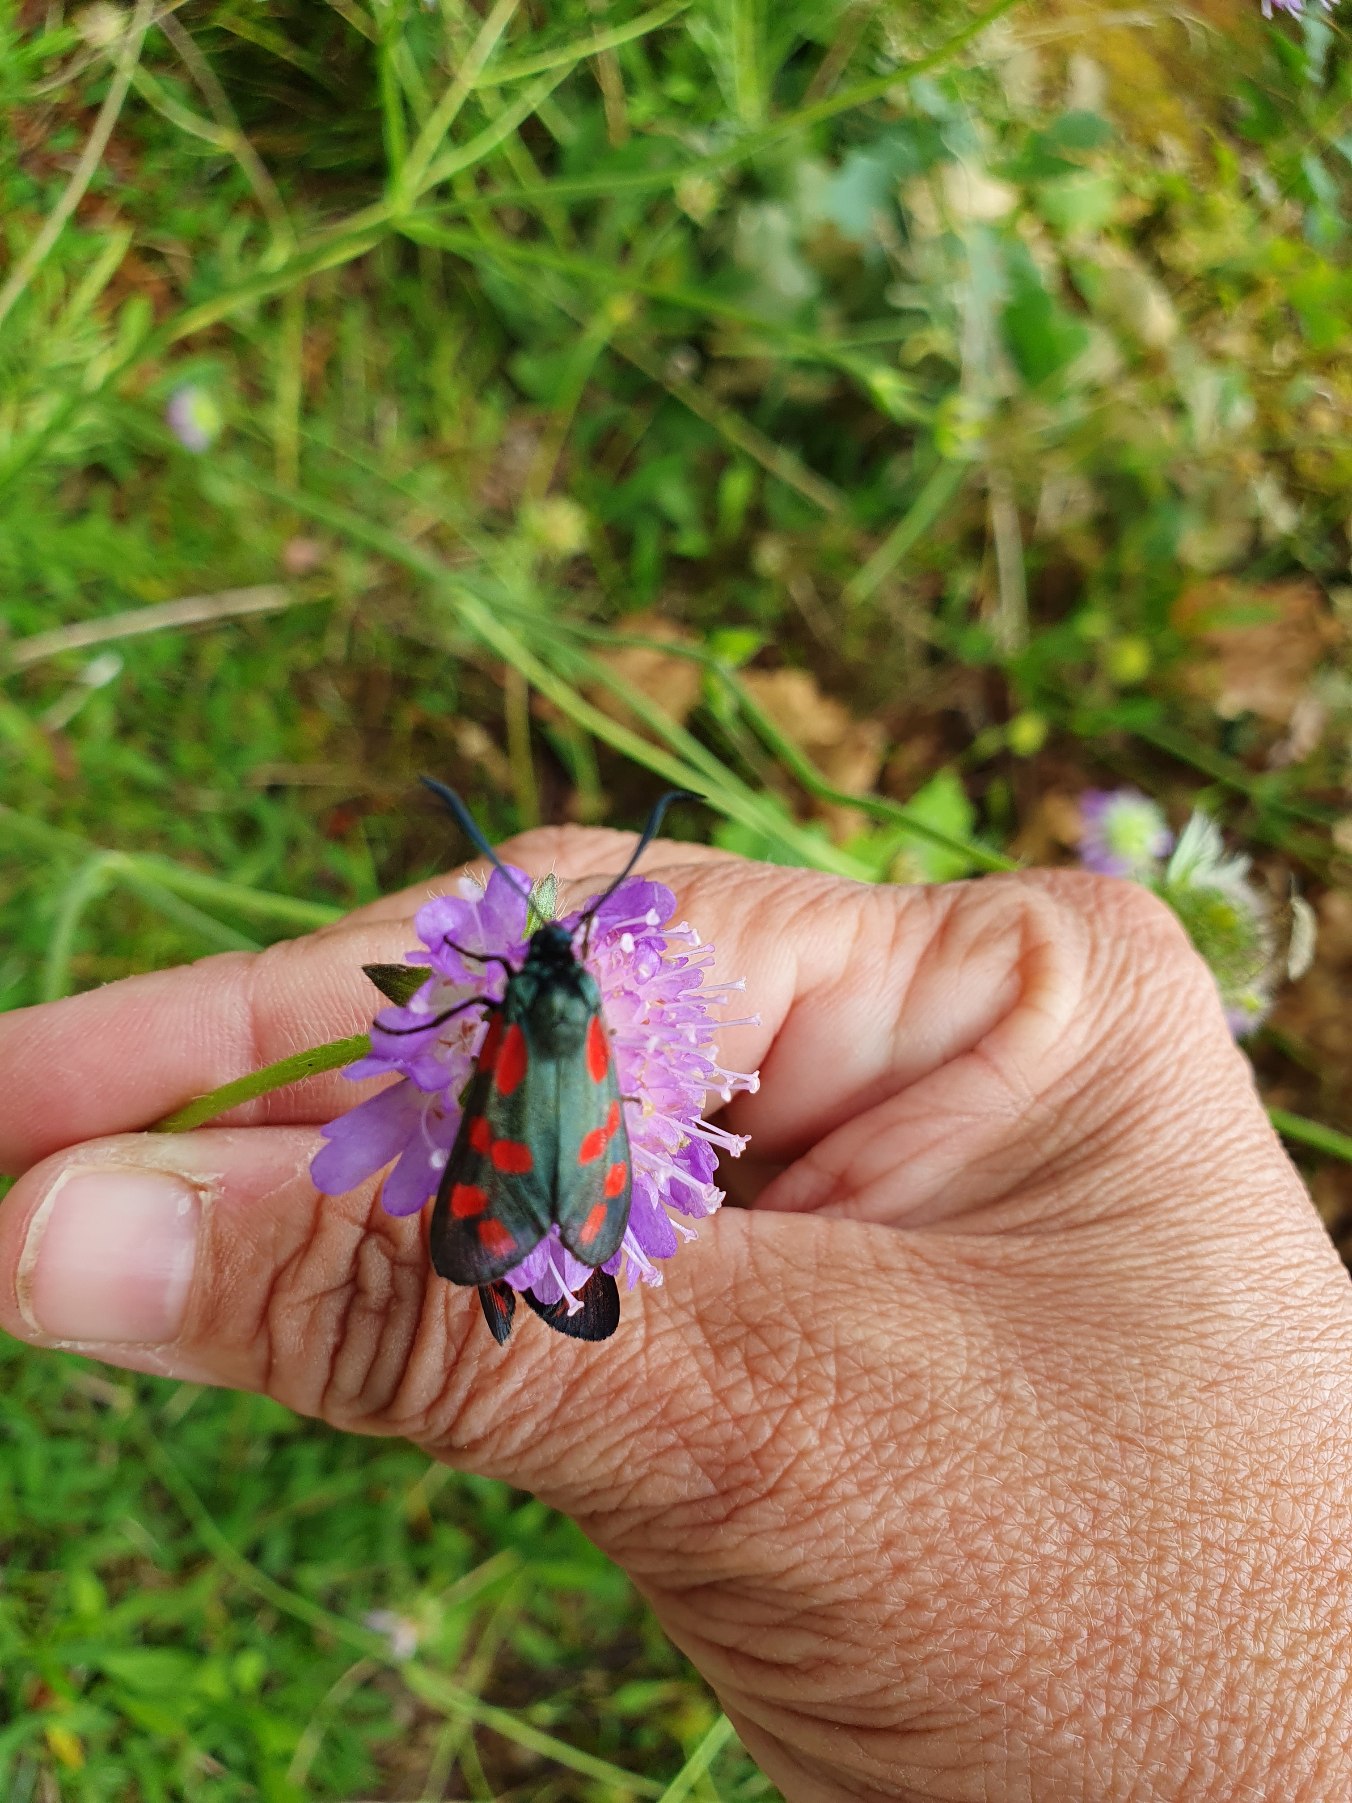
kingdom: Animalia
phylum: Arthropoda
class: Insecta
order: Lepidoptera
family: Zygaenidae
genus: Zygaena
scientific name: Zygaena filipendulae
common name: Seksplettet køllesværmer
